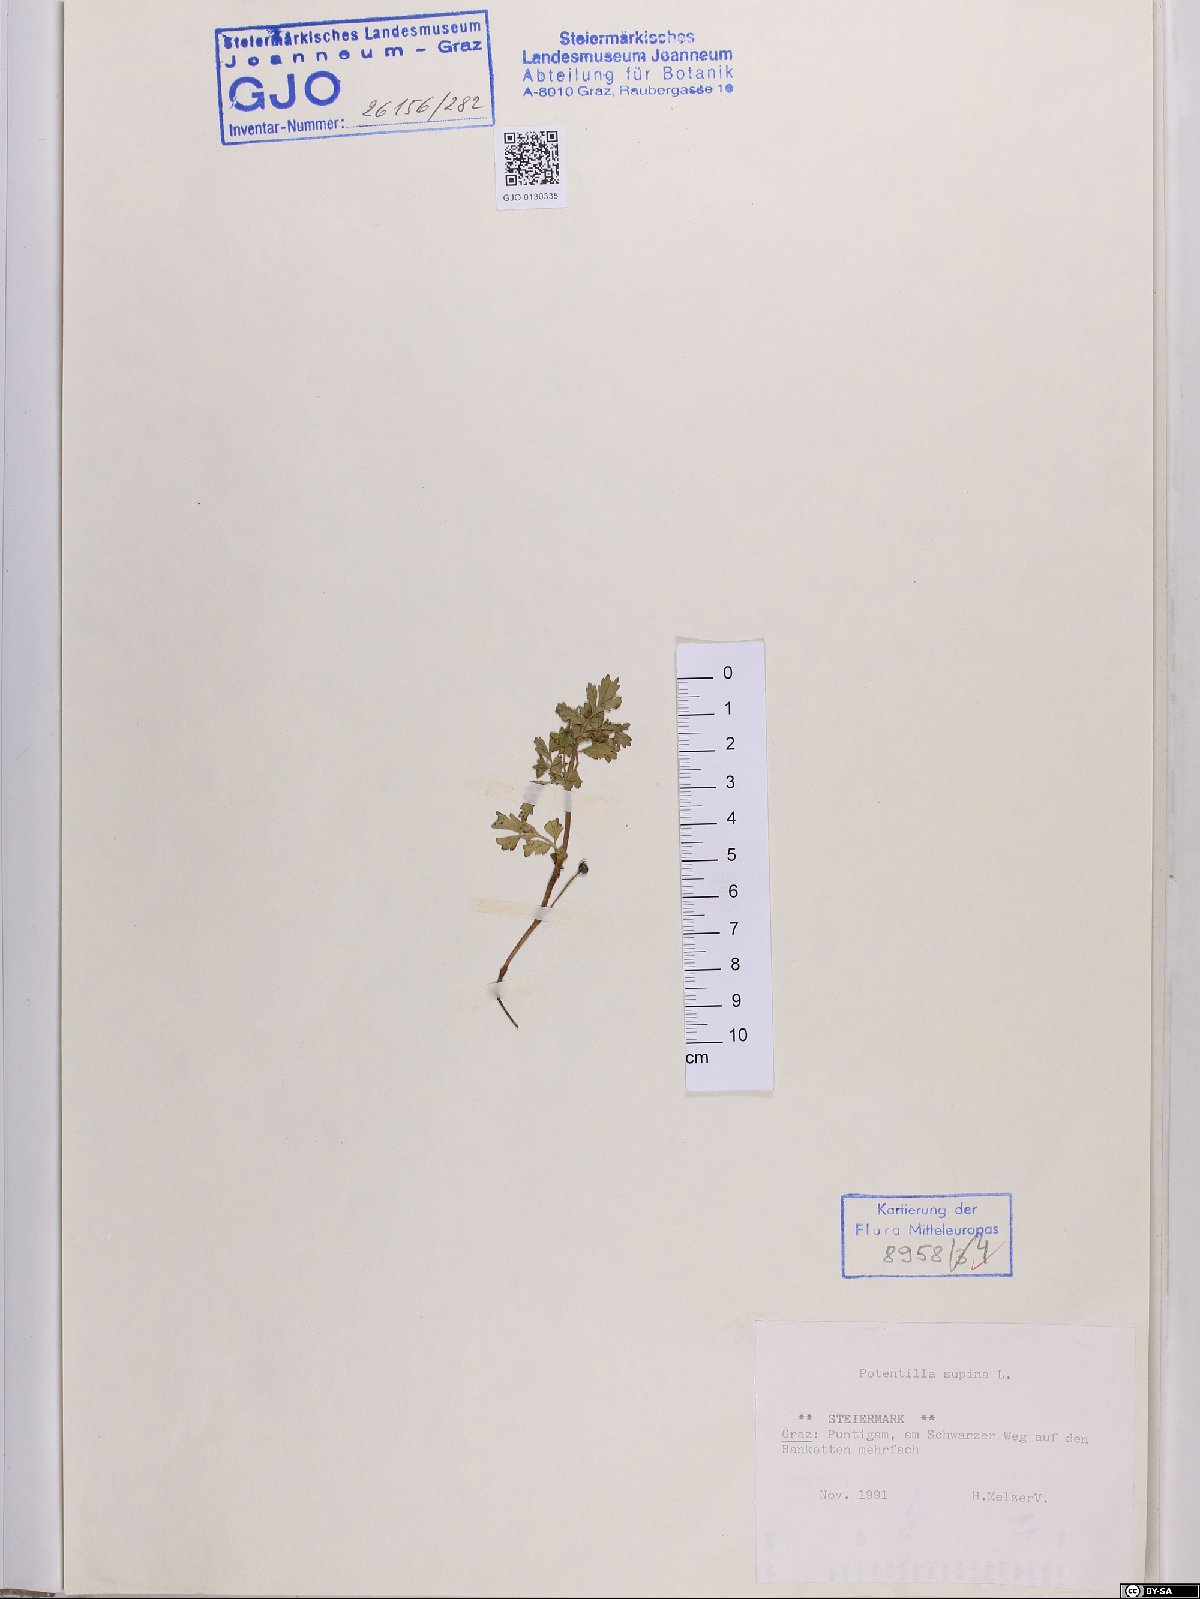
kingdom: Plantae
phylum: Tracheophyta
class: Magnoliopsida
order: Rosales
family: Rosaceae
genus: Potentilla
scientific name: Potentilla supina
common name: Prostrate cinquefoil
